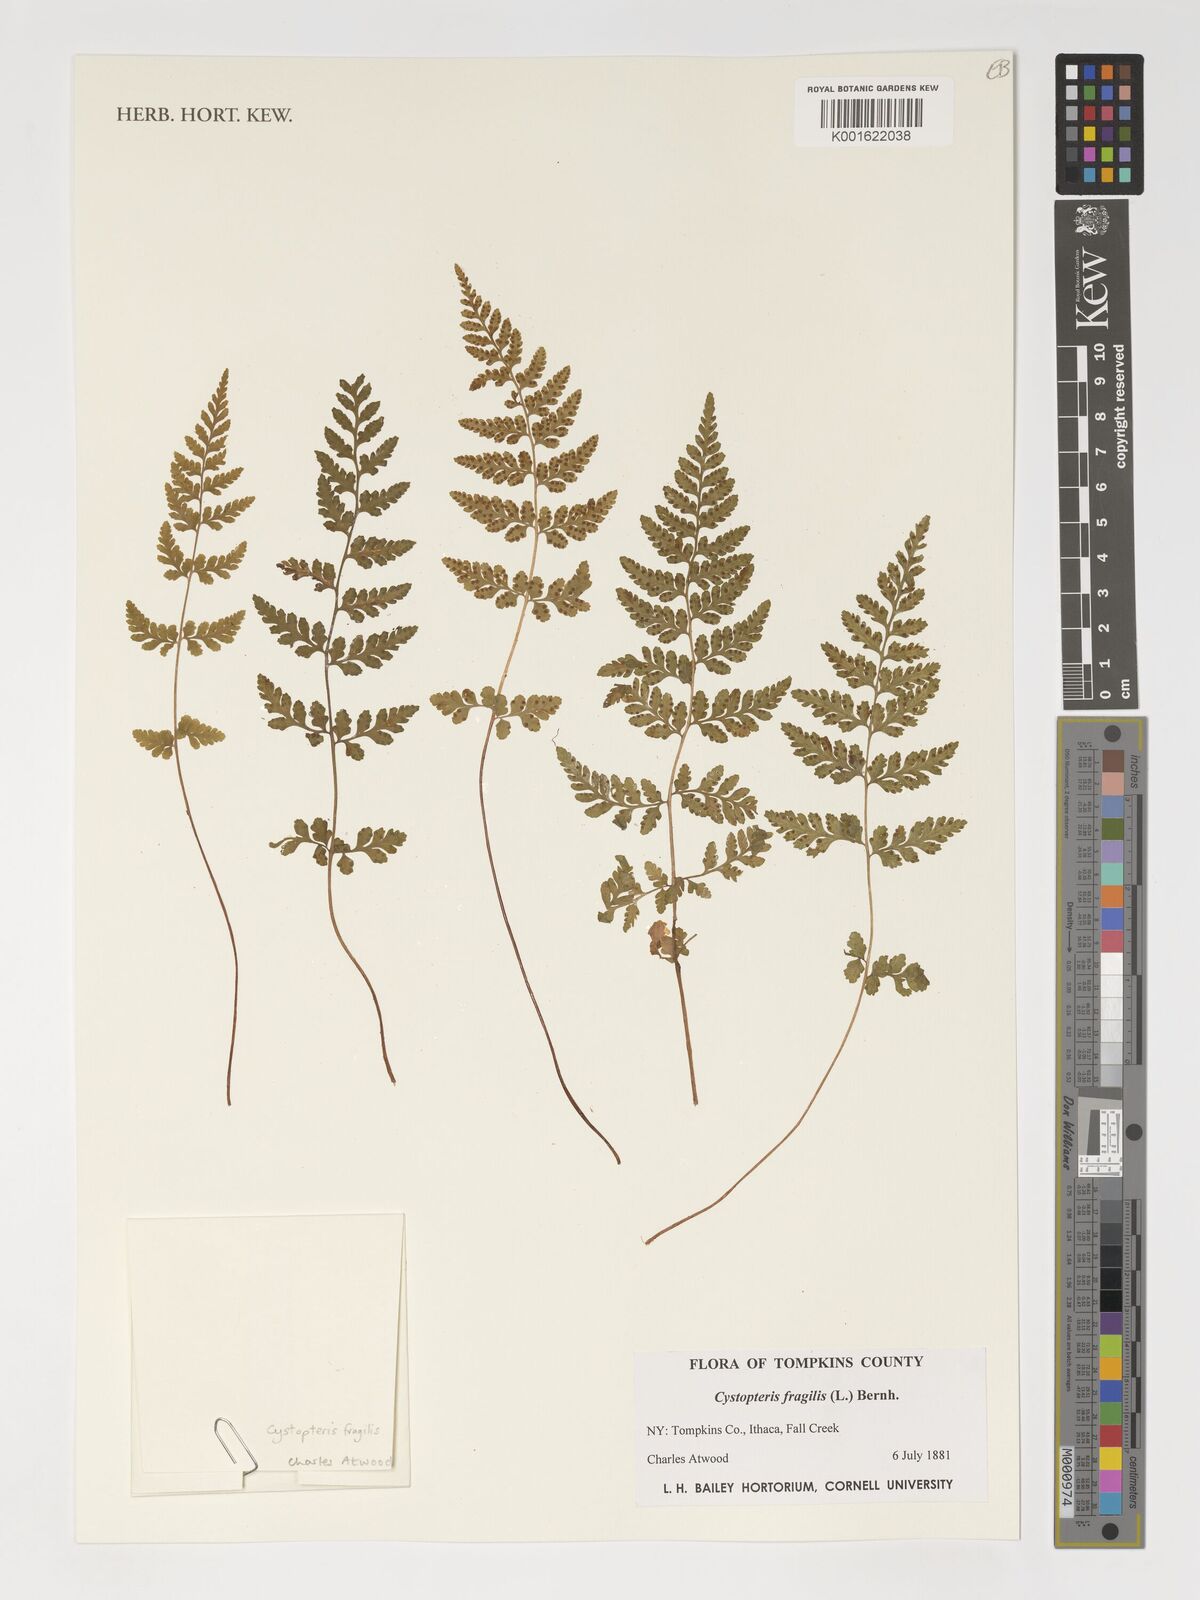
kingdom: Plantae
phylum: Tracheophyta
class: Polypodiopsida
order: Polypodiales
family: Cystopteridaceae
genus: Cystopteris
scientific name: Cystopteris fragilis
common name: Brittle bladder fern
